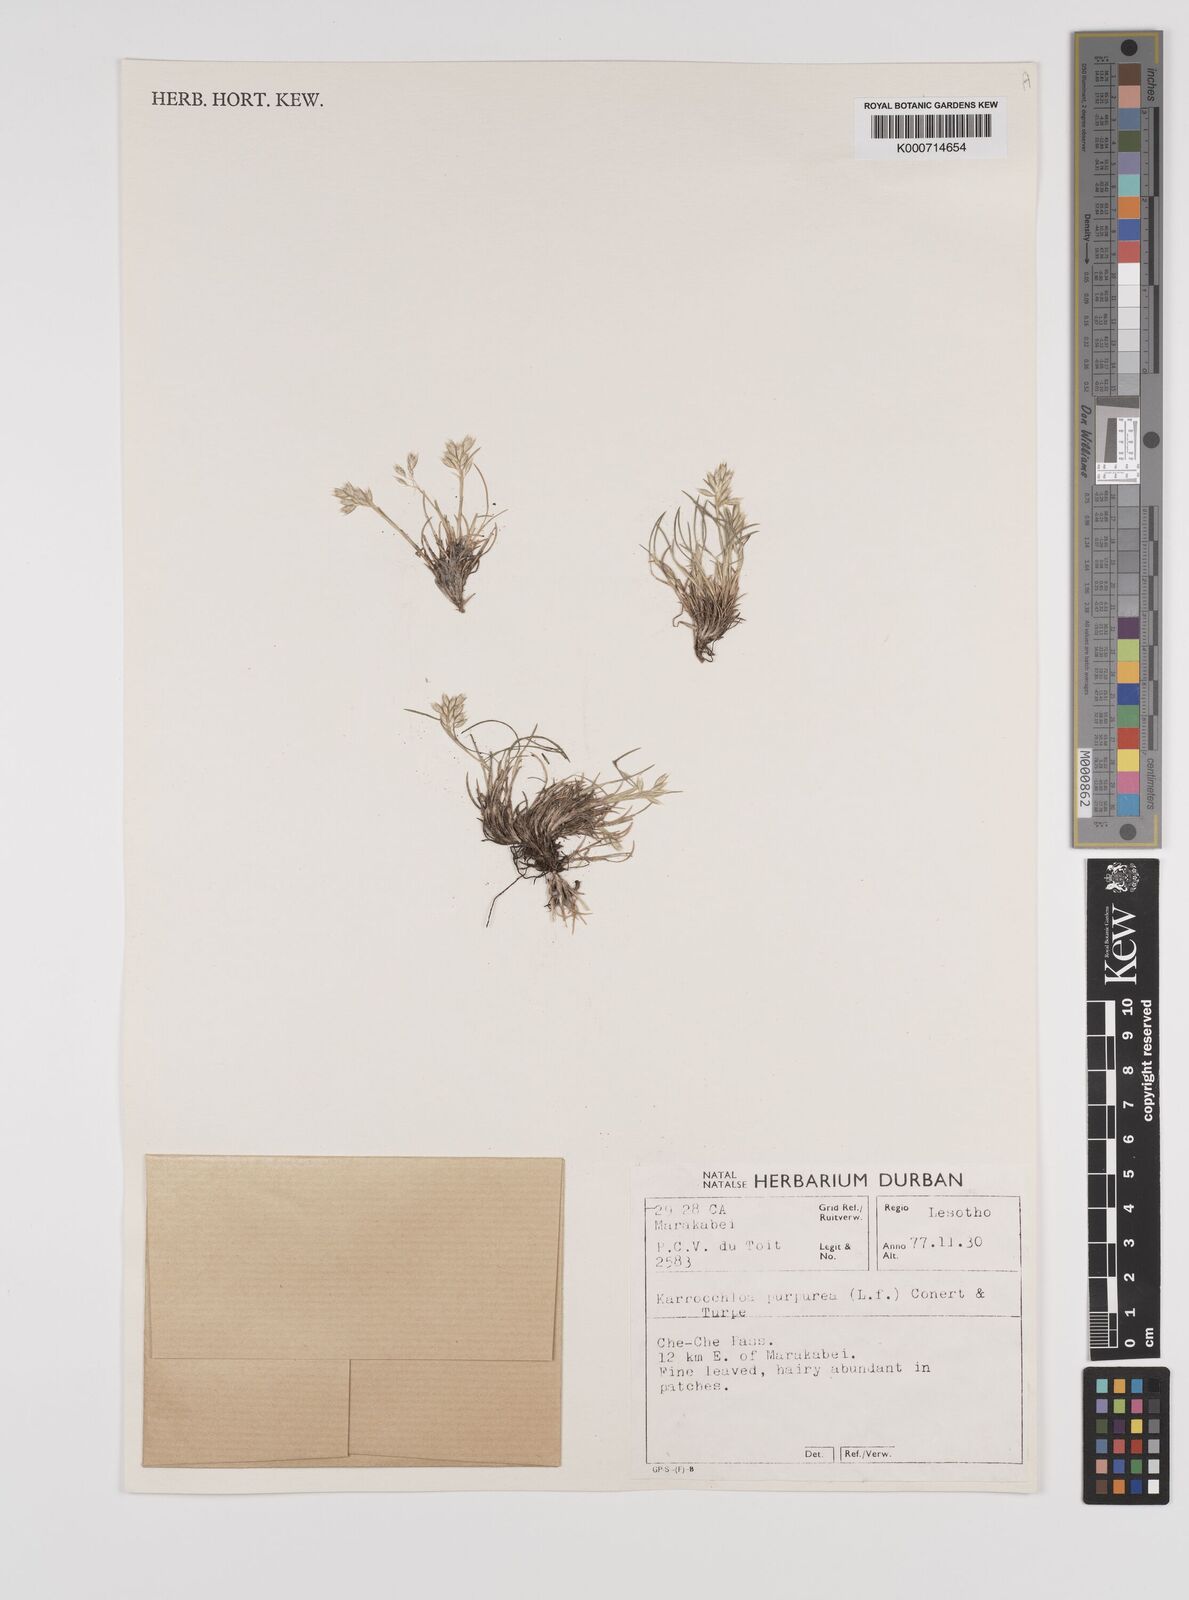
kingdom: Plantae
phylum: Tracheophyta
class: Liliopsida
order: Poales
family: Poaceae
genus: Rytidosperma
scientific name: Rytidosperma
